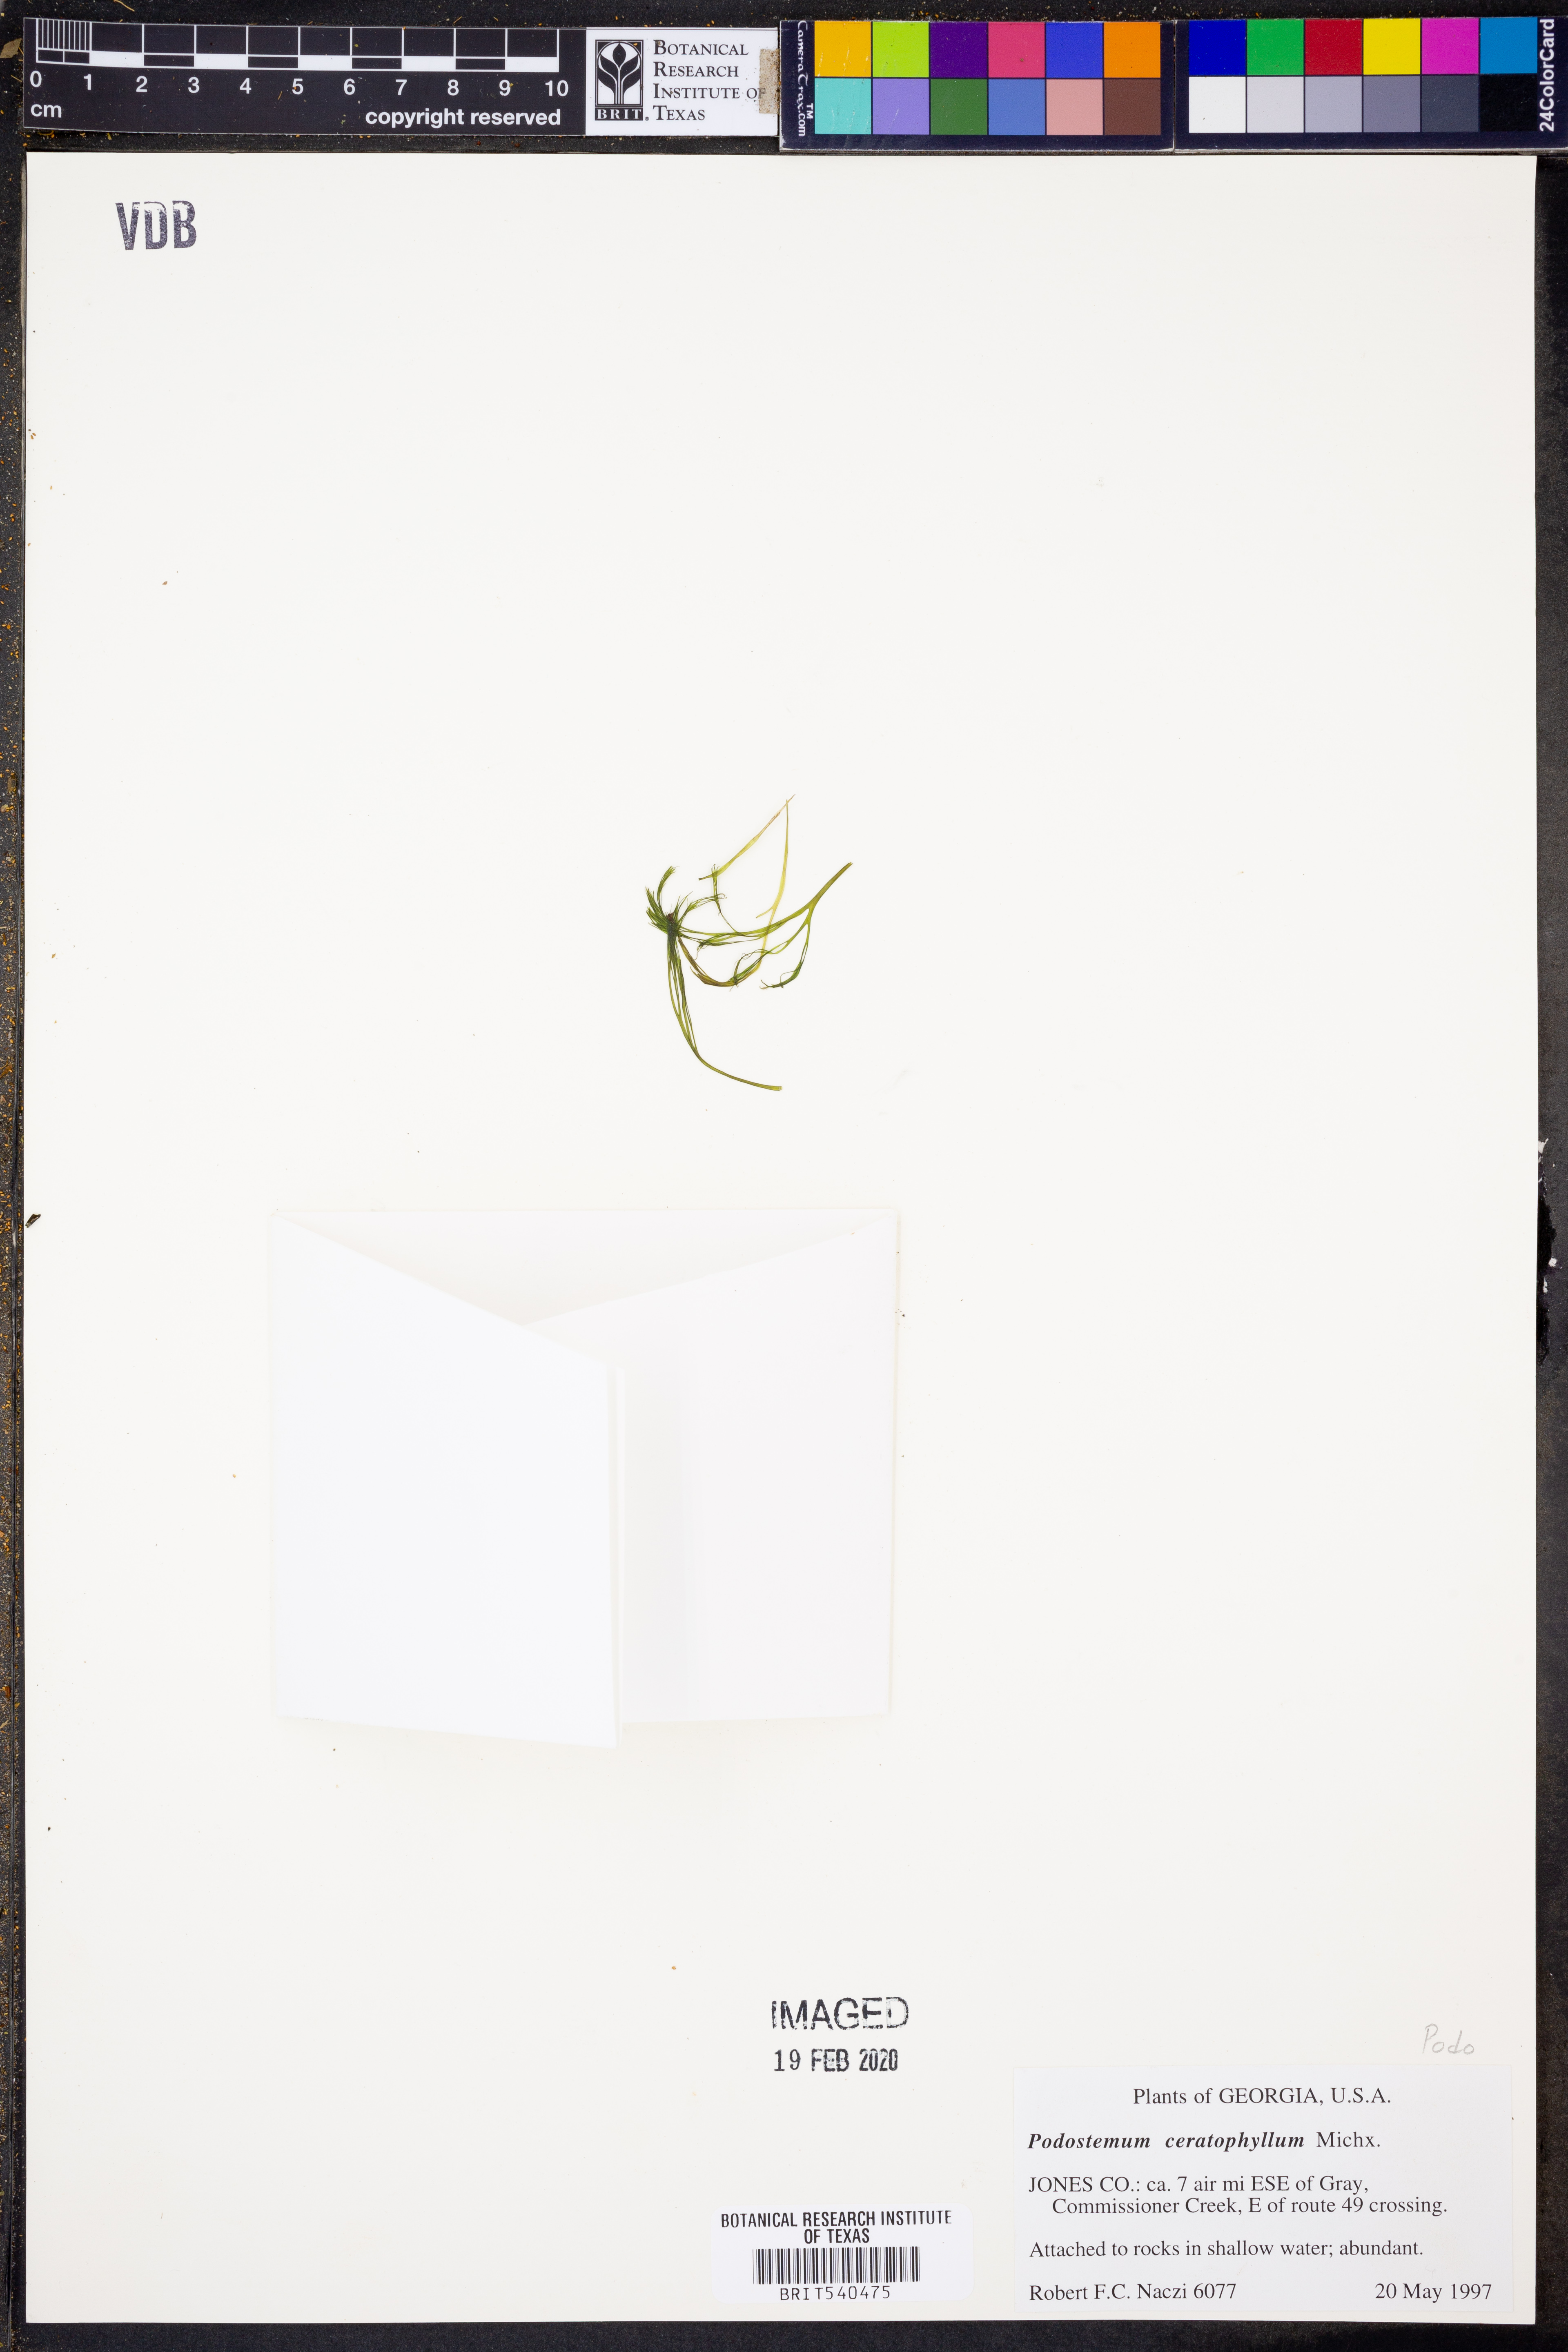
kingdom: Plantae
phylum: Tracheophyta
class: Magnoliopsida
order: Malpighiales
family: Podostemaceae
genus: Podostemum
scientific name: Podostemum ceratophyllum
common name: Horn-leaved riverweed
